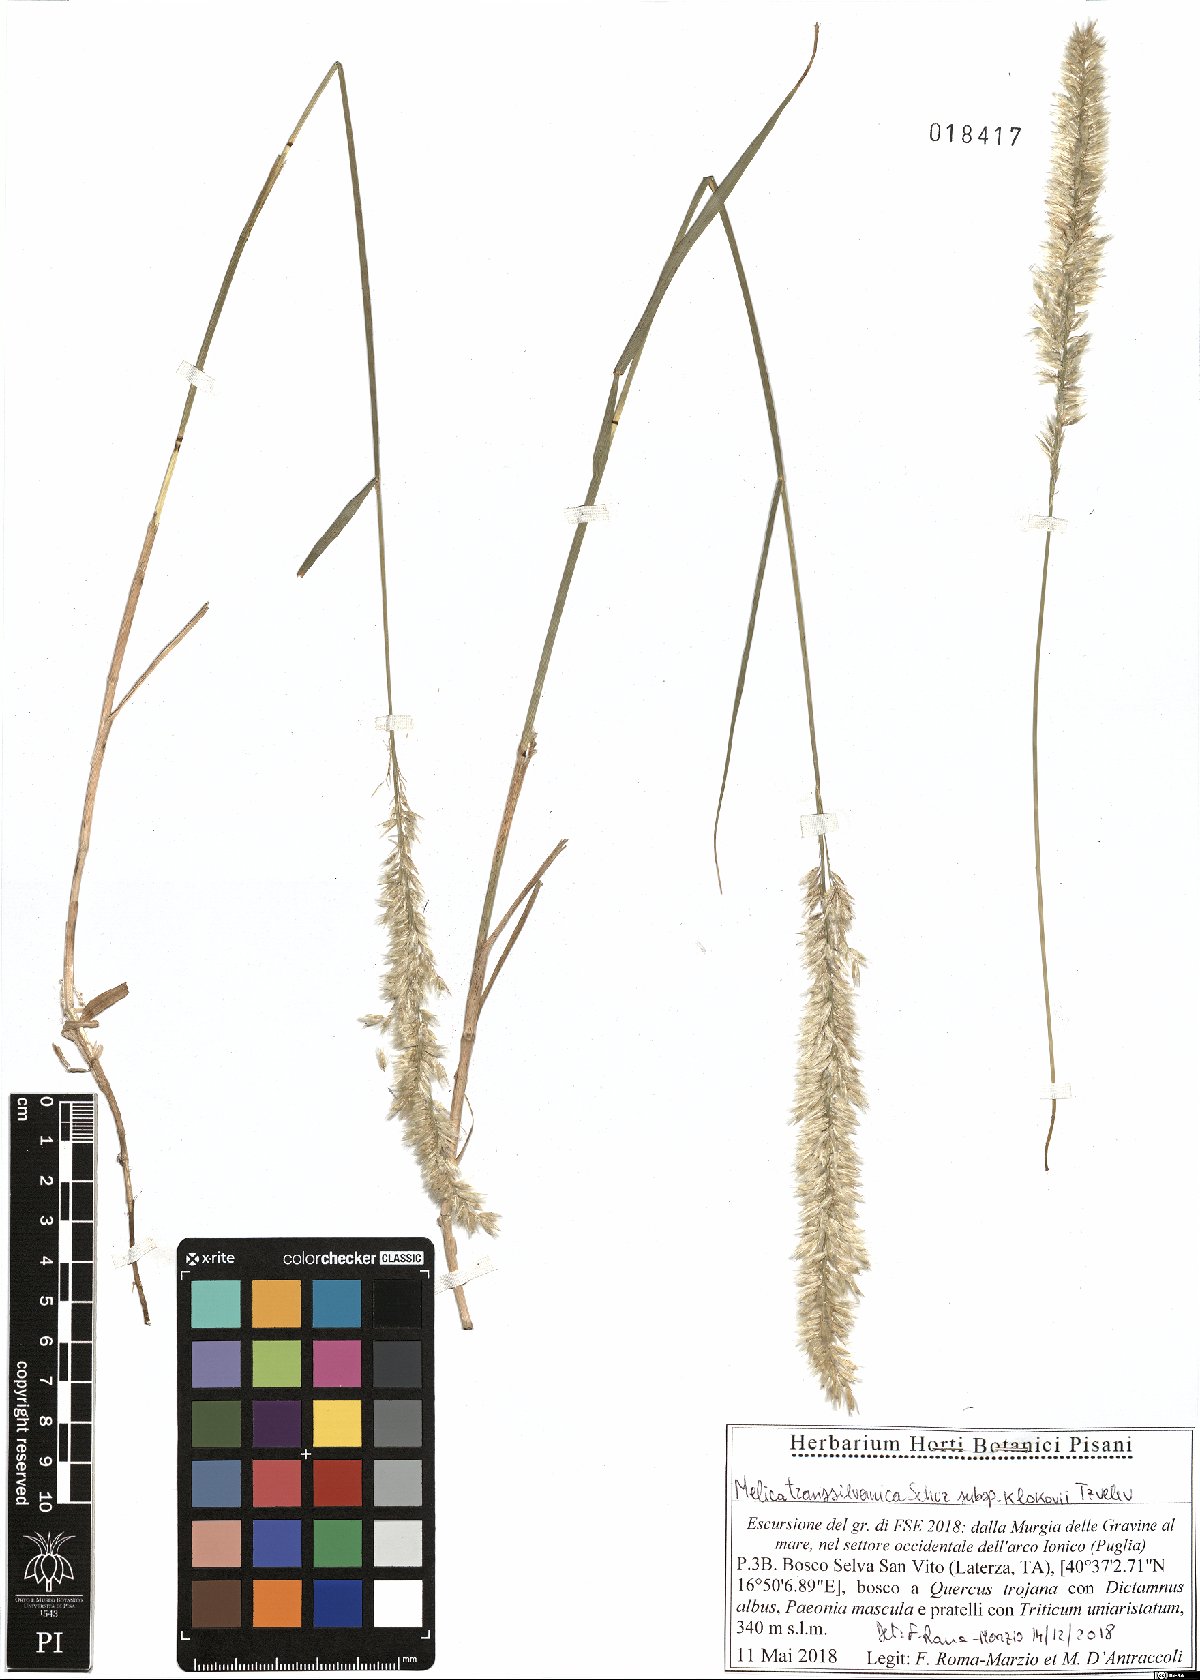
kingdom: Plantae
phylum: Tracheophyta
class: Liliopsida
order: Poales
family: Poaceae
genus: Melica
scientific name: Melica transsilvanica
